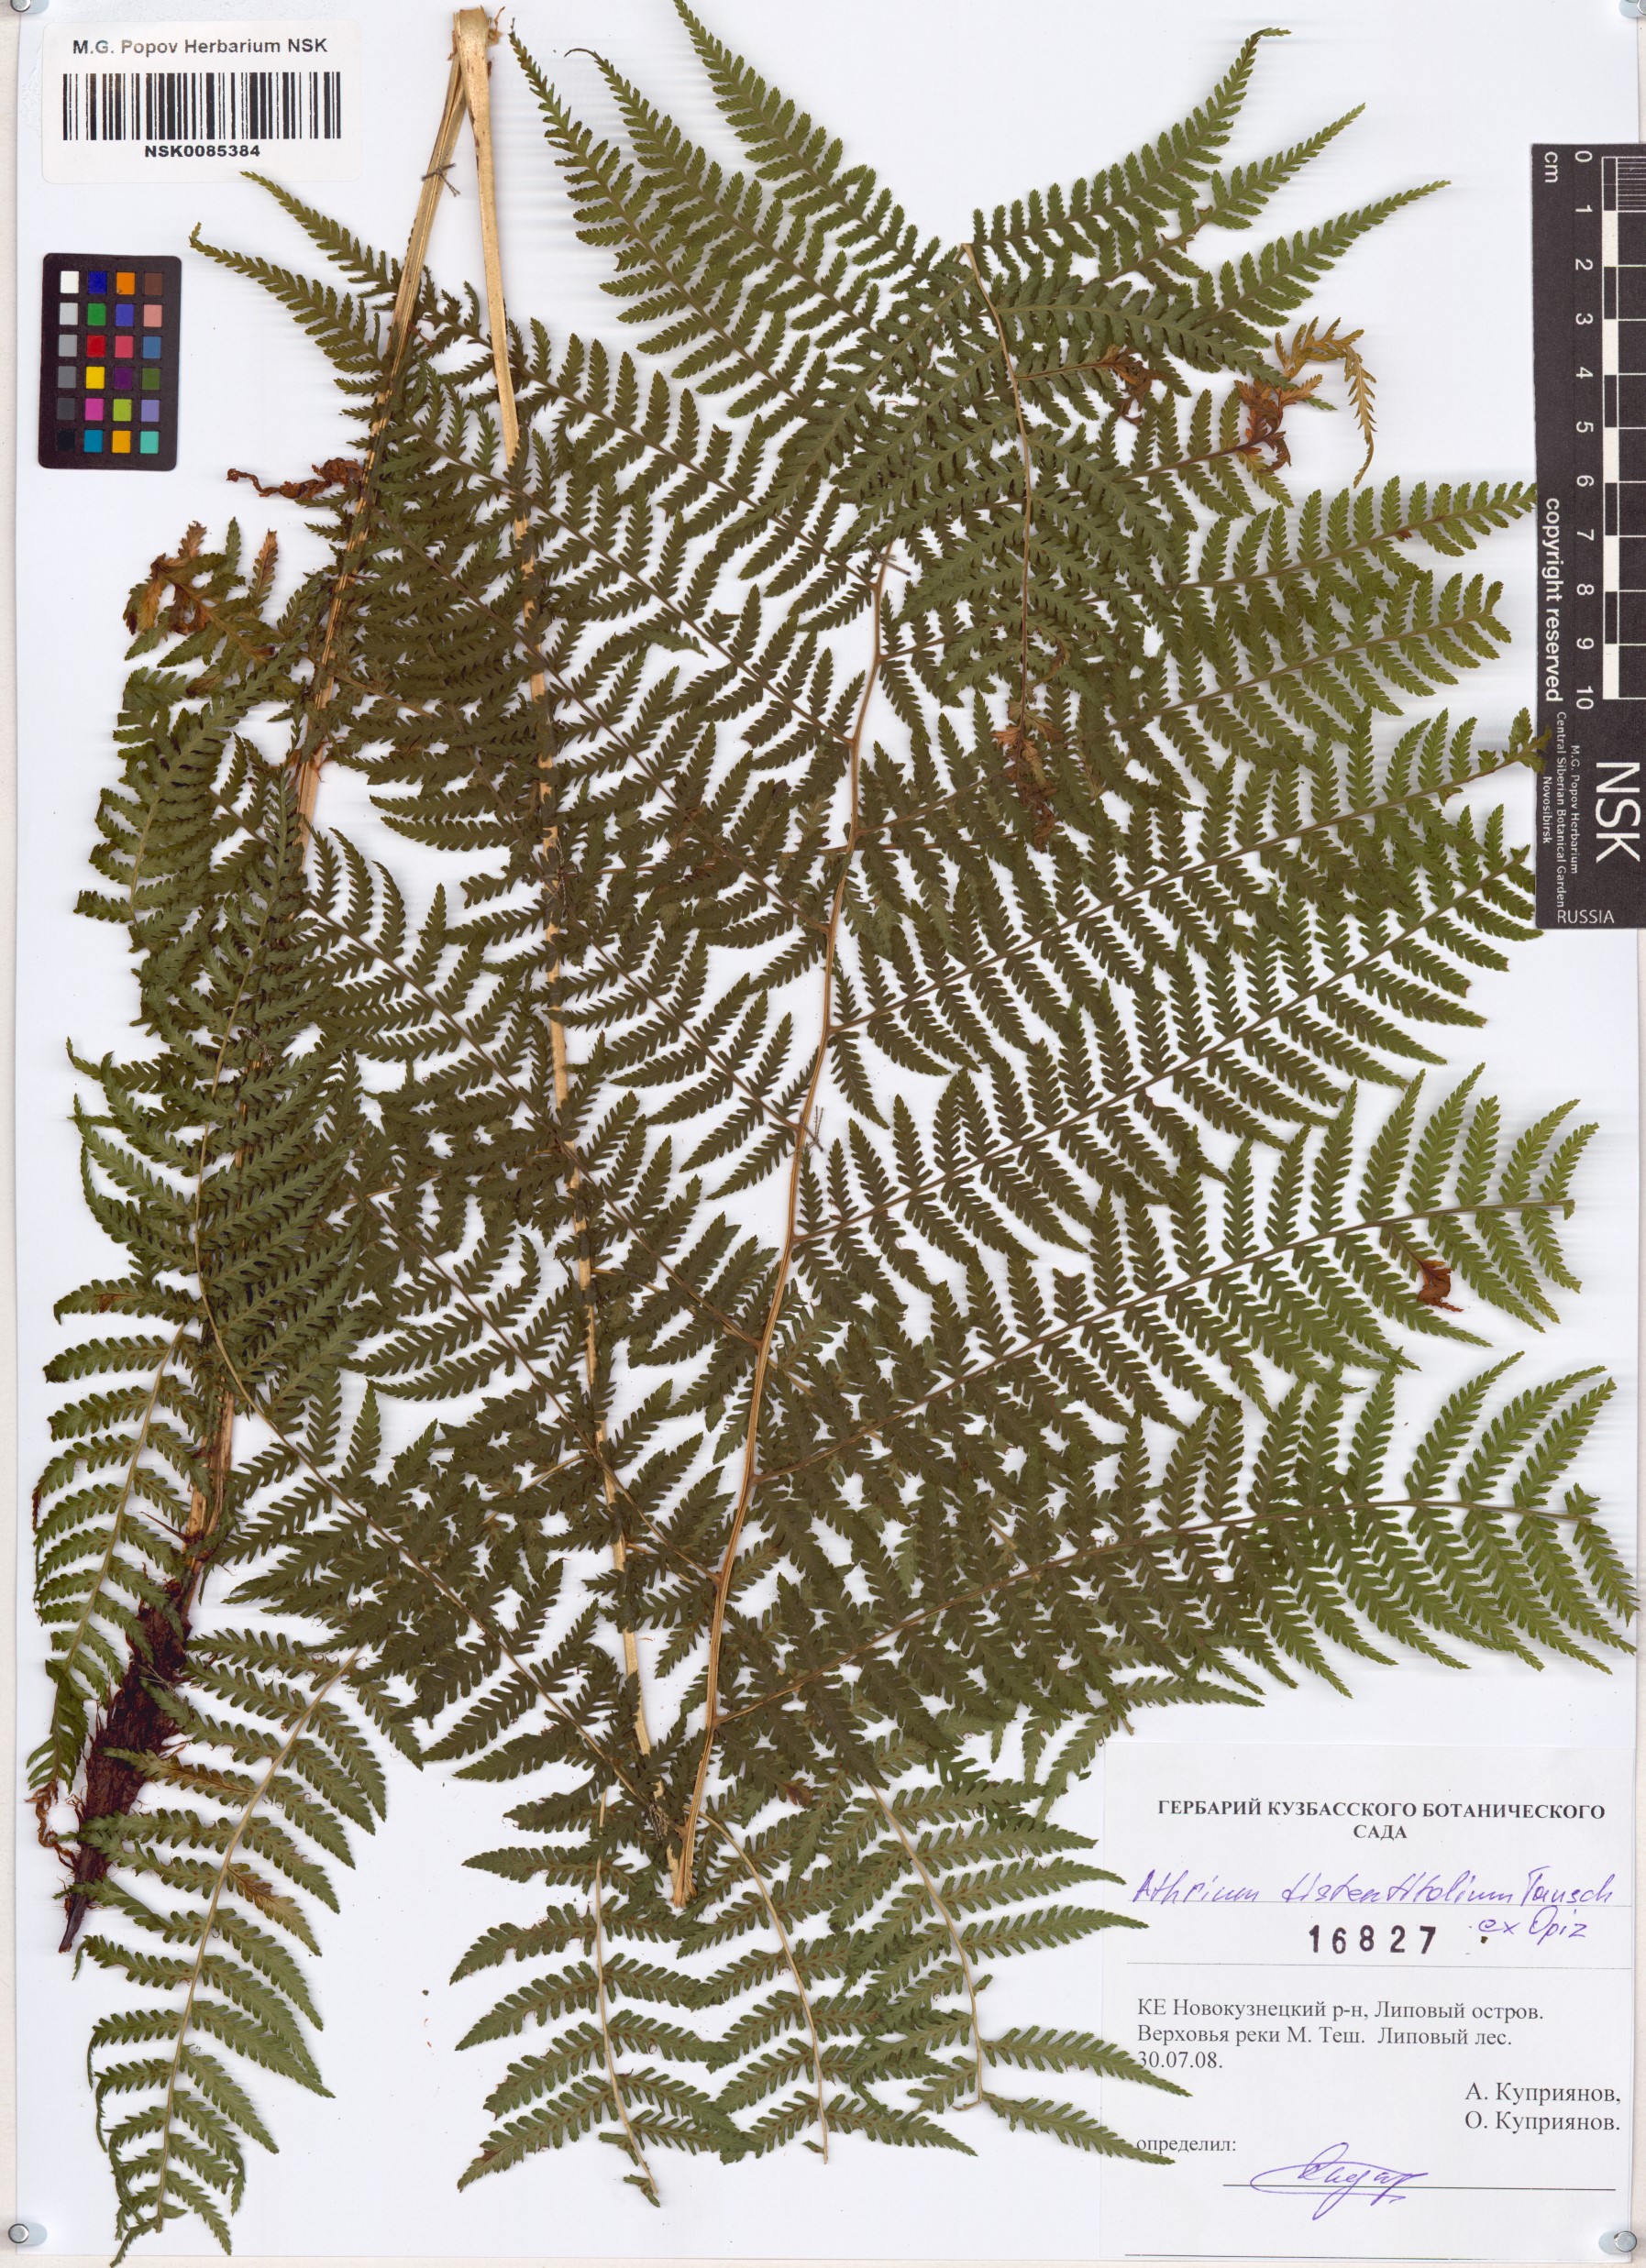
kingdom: Plantae
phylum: Tracheophyta
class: Polypodiopsida
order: Polypodiales
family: Athyriaceae
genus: Pseudathyrium
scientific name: Pseudathyrium alpestre
